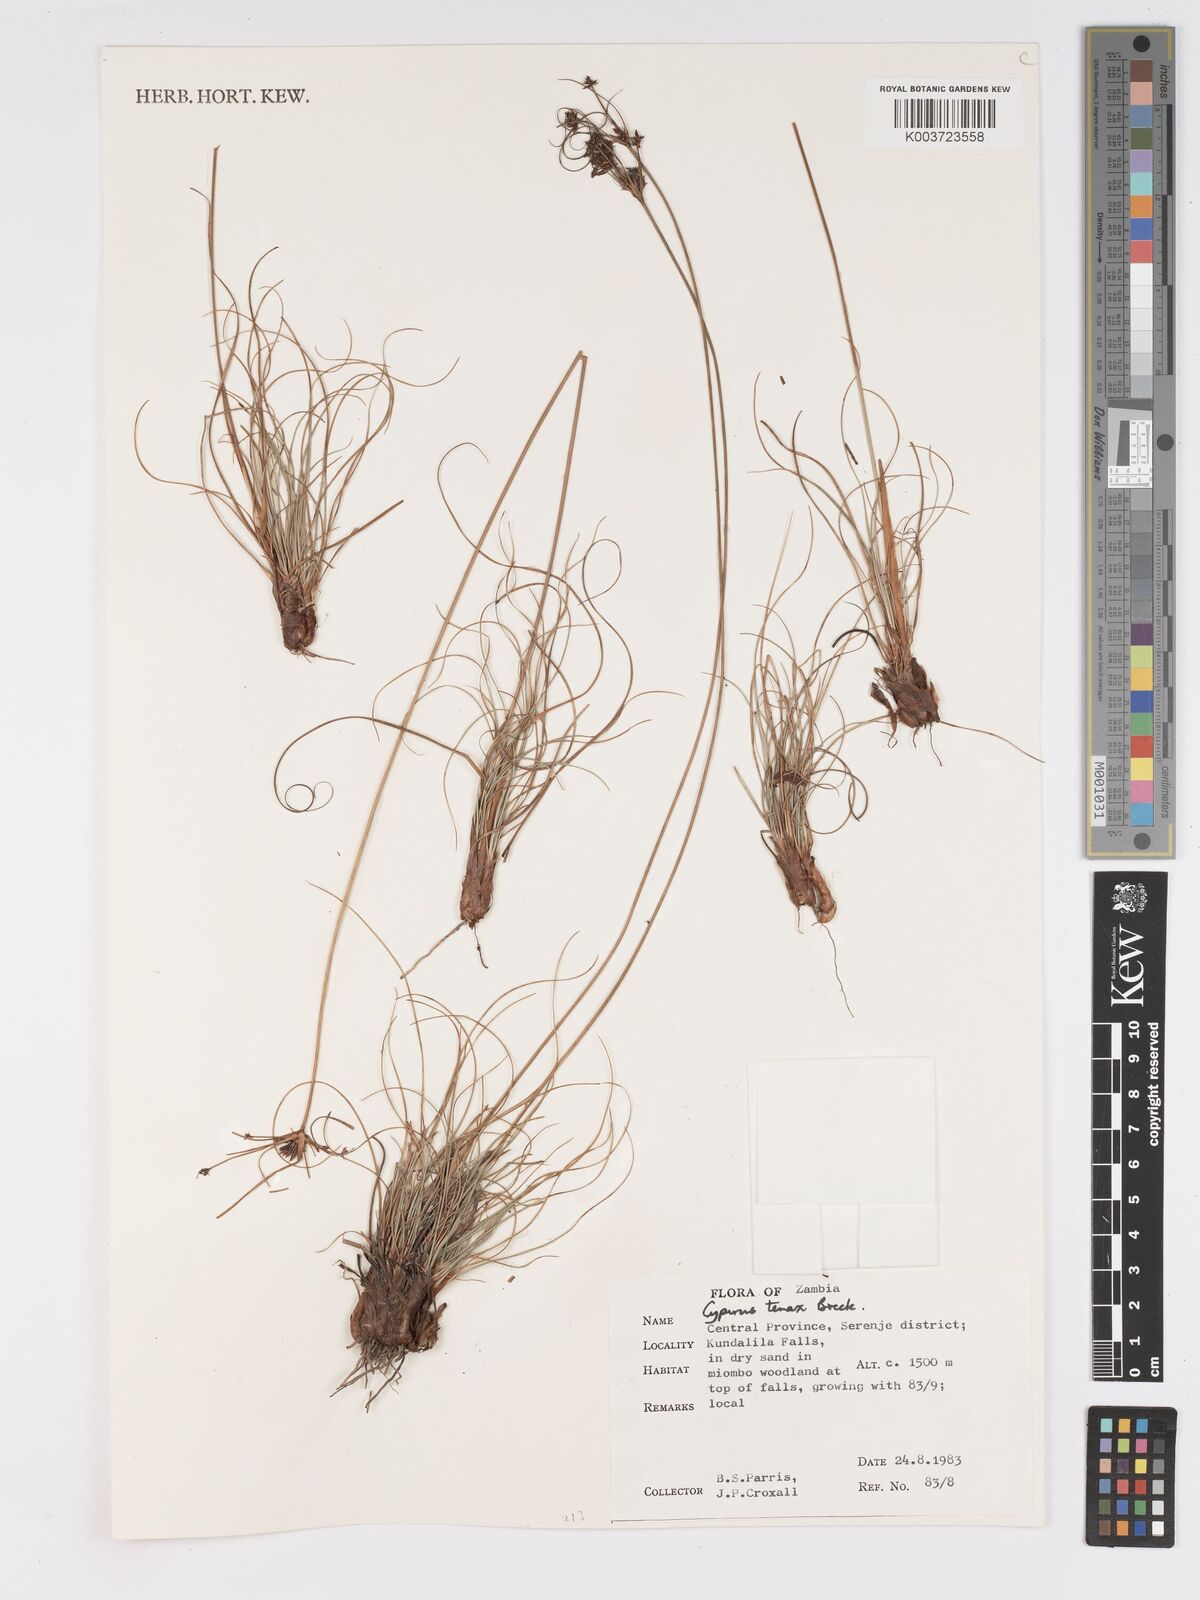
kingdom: Plantae
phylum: Tracheophyta
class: Liliopsida
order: Poales
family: Cyperaceae
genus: Cyperus
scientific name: Cyperus tenax
